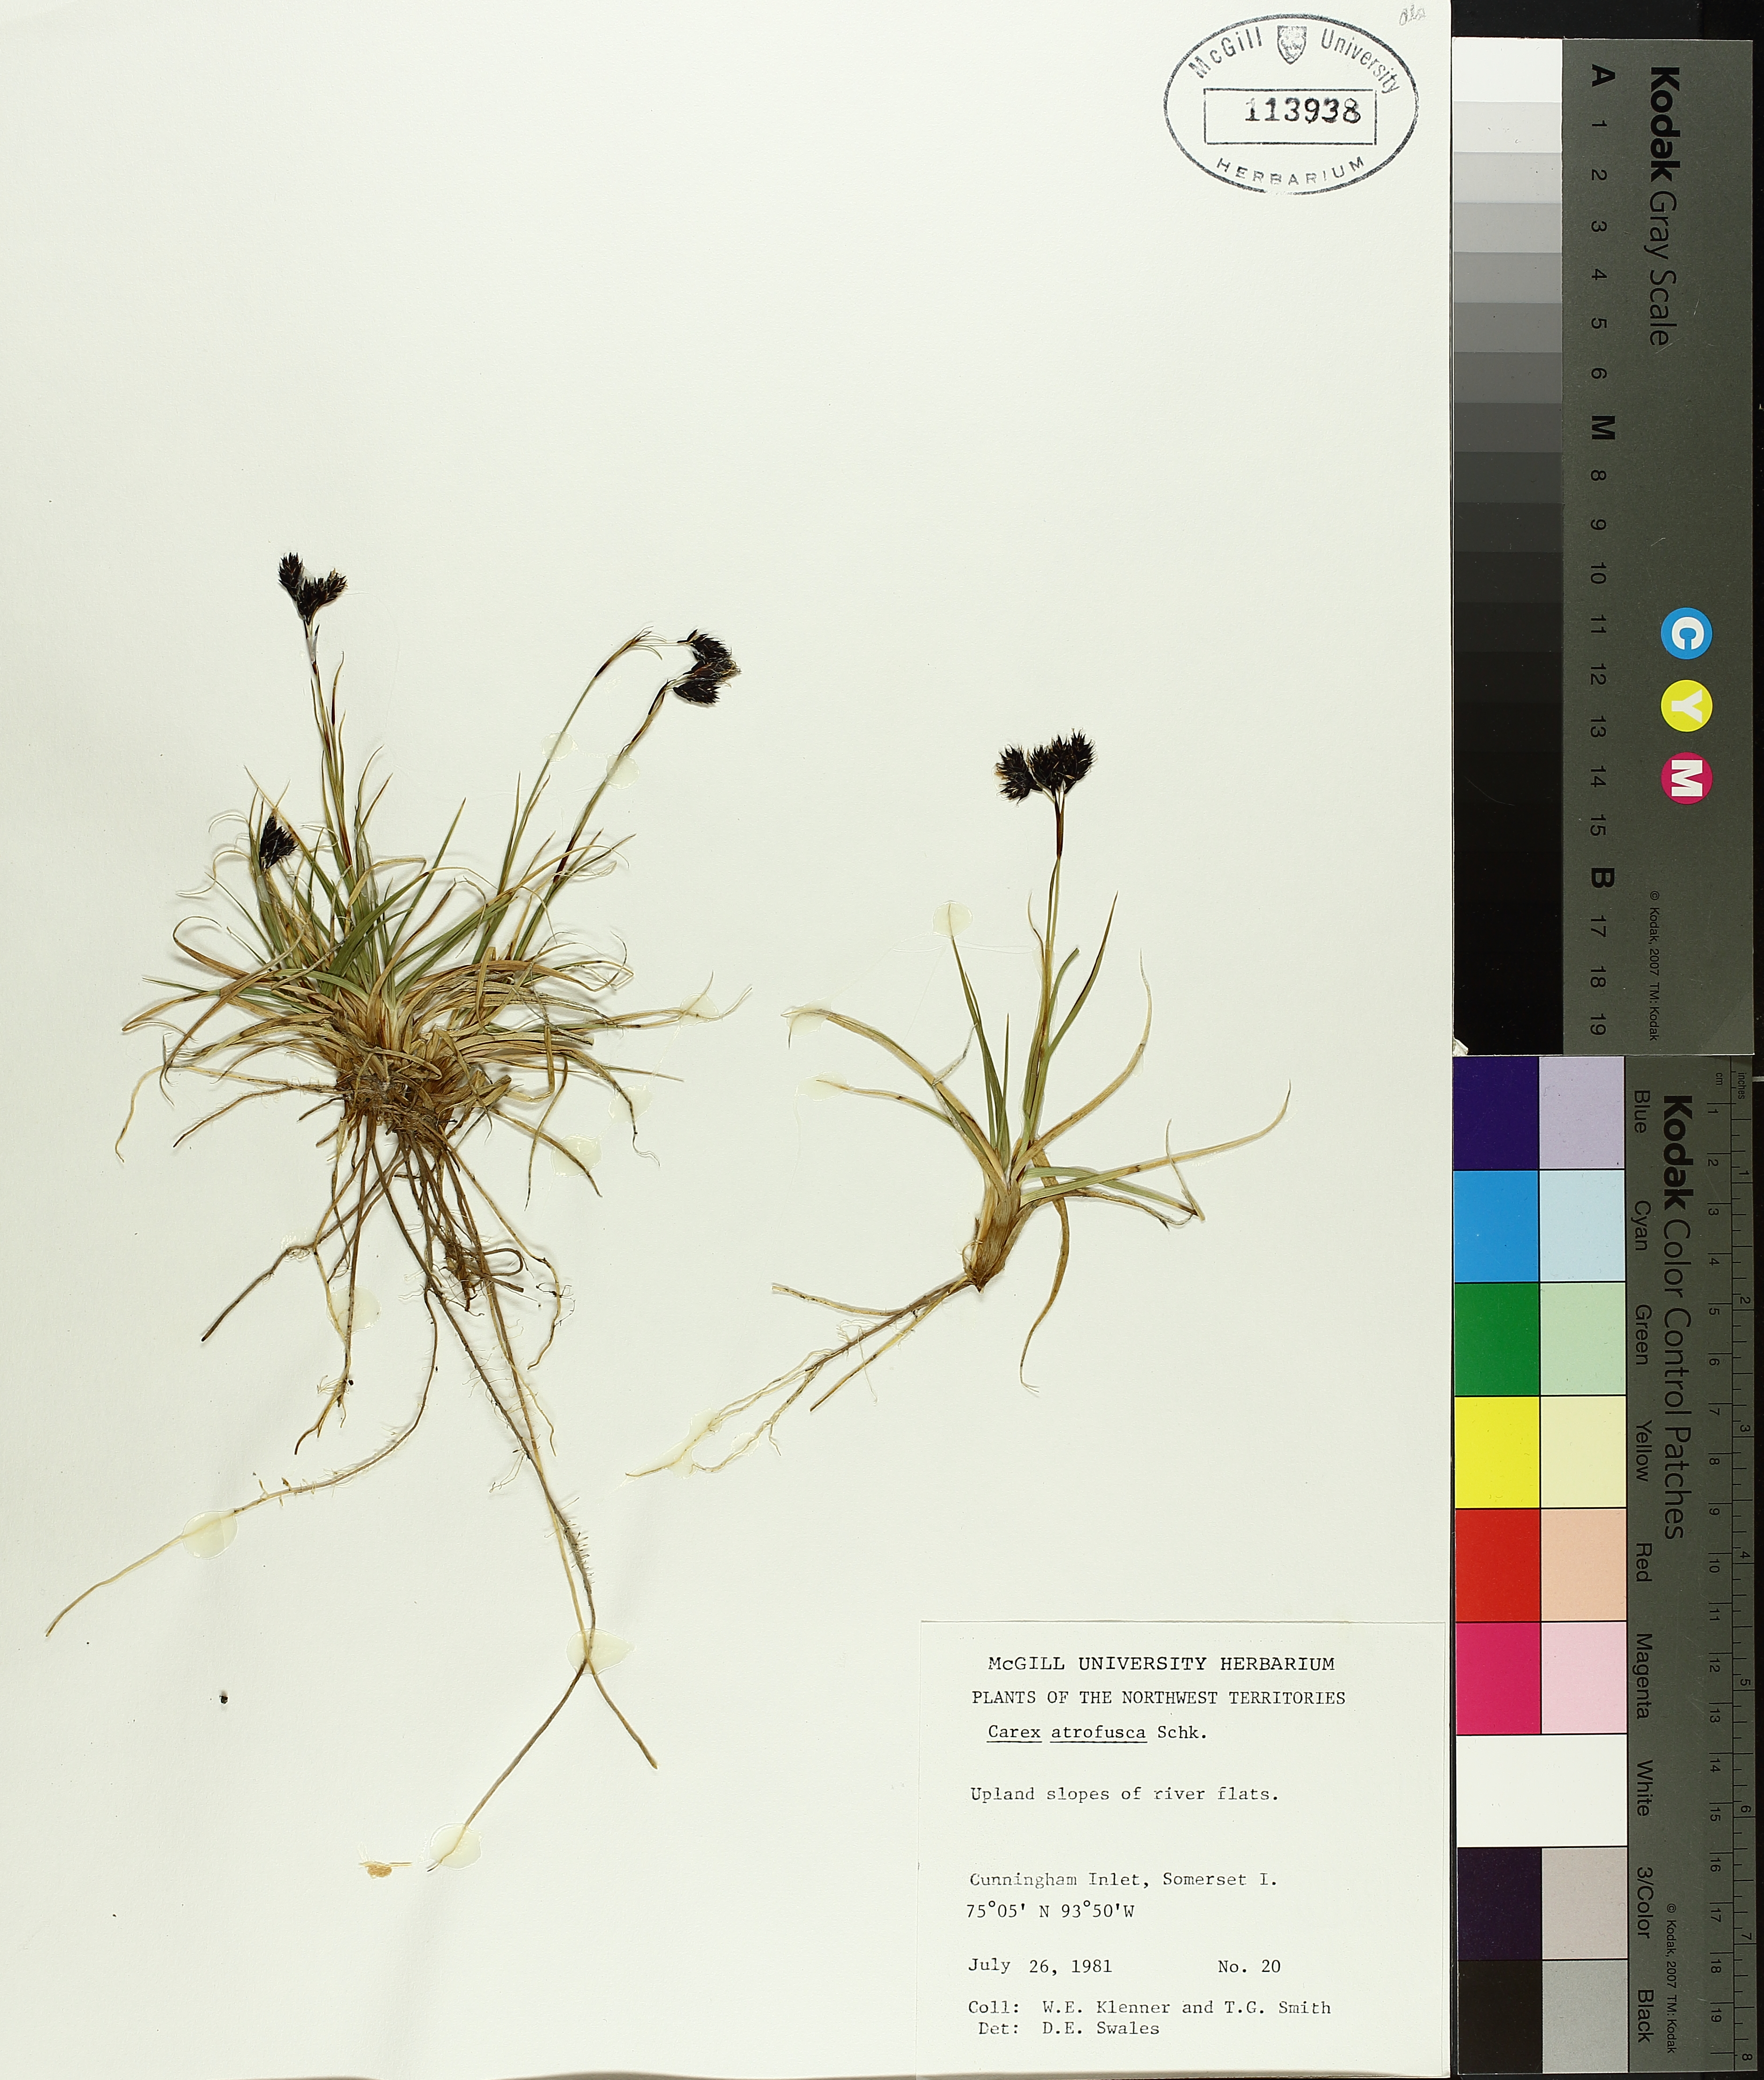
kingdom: Plantae
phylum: Tracheophyta
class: Liliopsida
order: Poales
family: Cyperaceae
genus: Carex
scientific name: Carex atrofusca
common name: Scorched alpine-sedge
